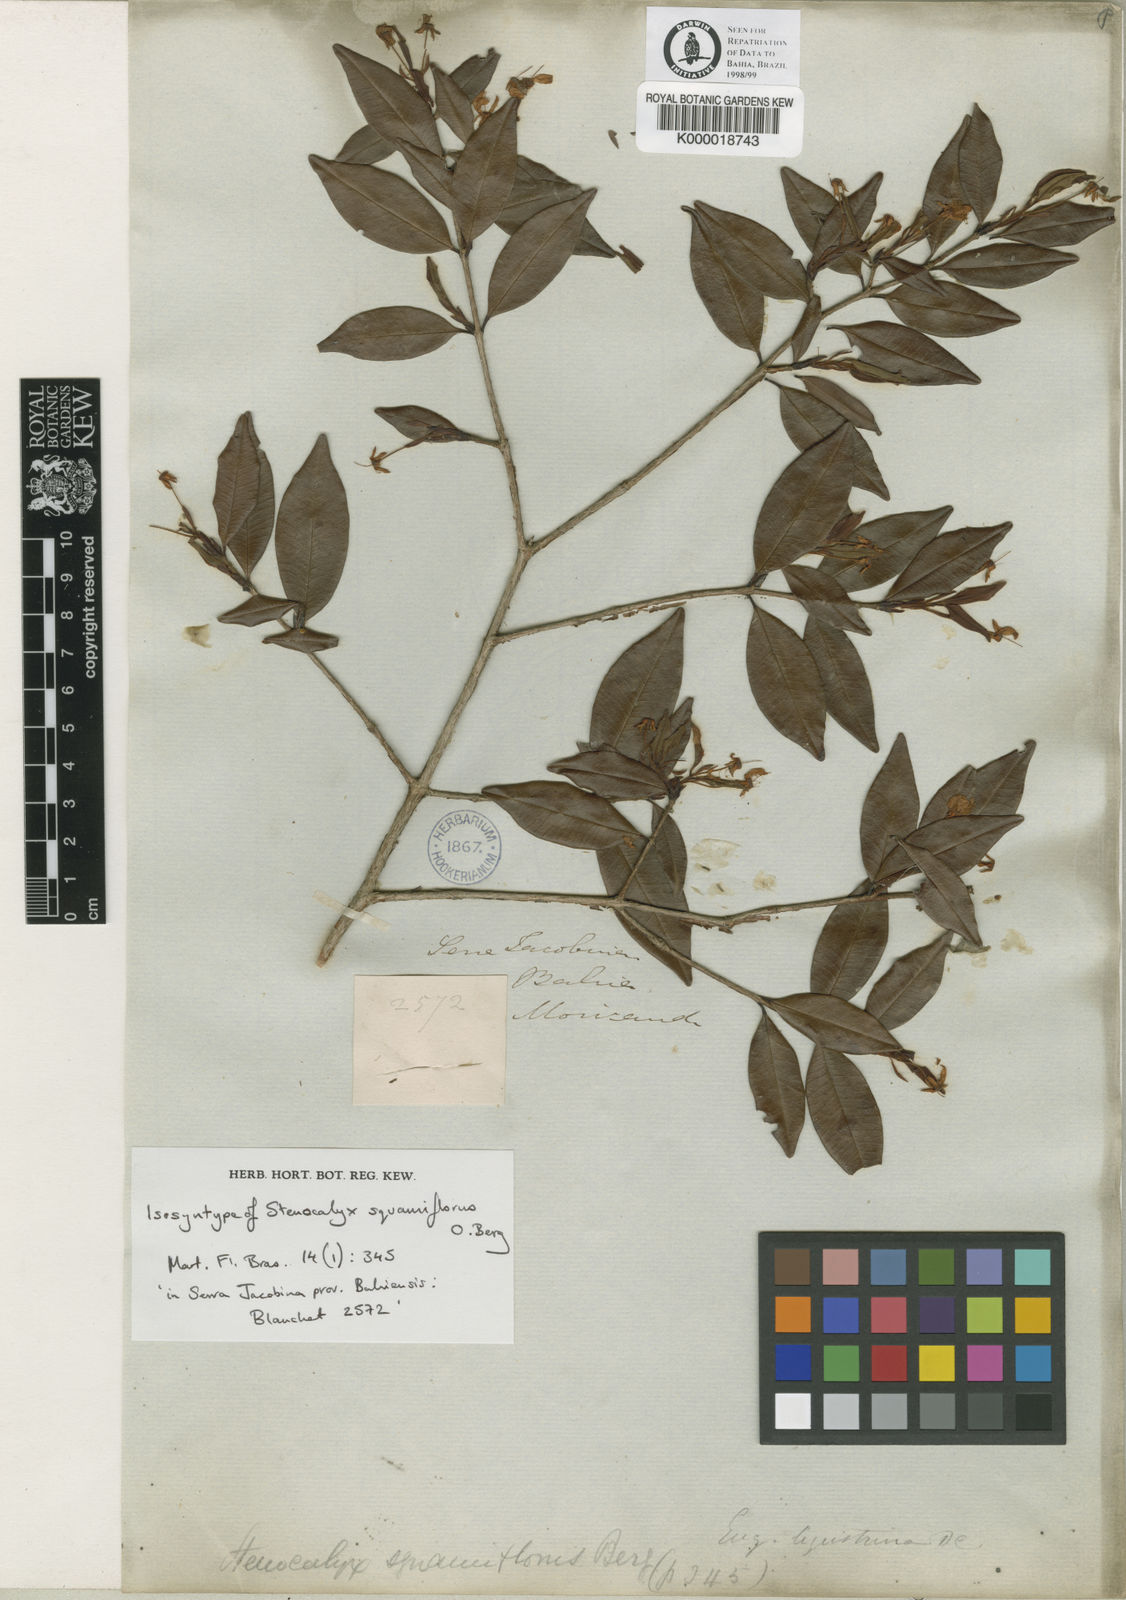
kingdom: Plantae
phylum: Tracheophyta
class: Magnoliopsida
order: Myrtales
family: Myrtaceae
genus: Eugenia
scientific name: Eugenia ligustrina
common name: Privet stopper
